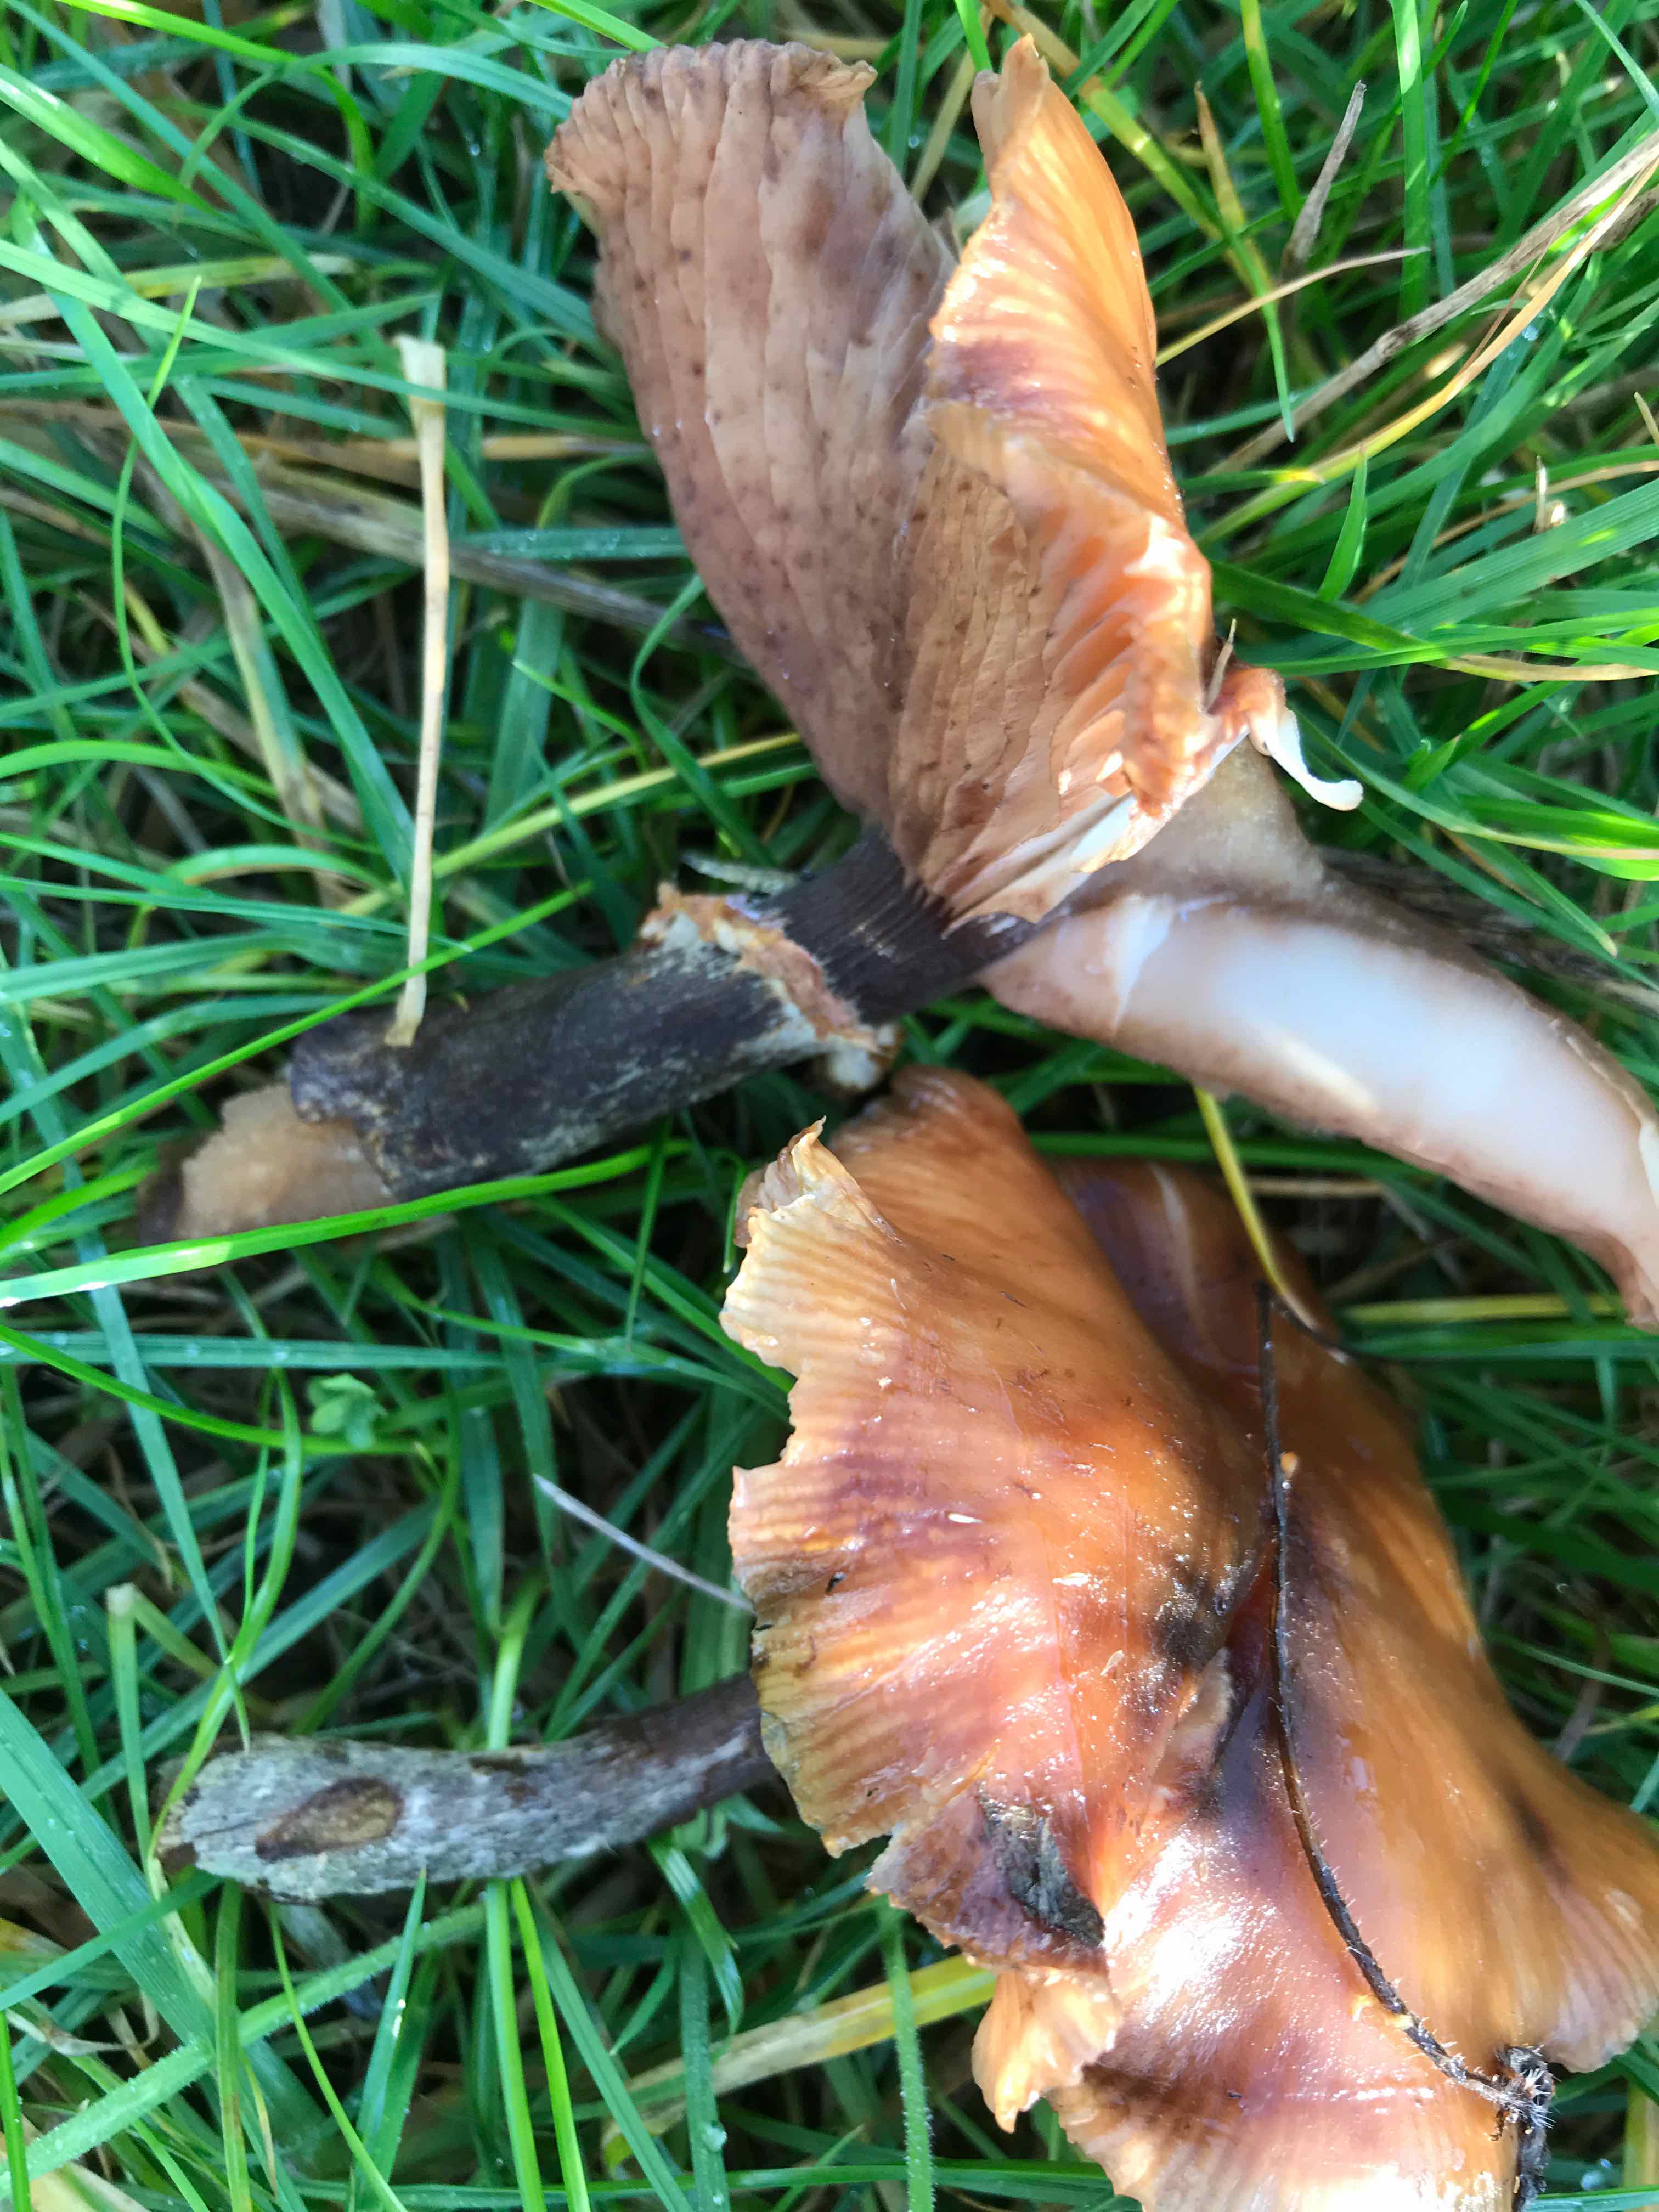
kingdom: Fungi
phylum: Basidiomycota
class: Agaricomycetes
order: Agaricales
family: Physalacriaceae
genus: Armillaria
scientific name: Armillaria
